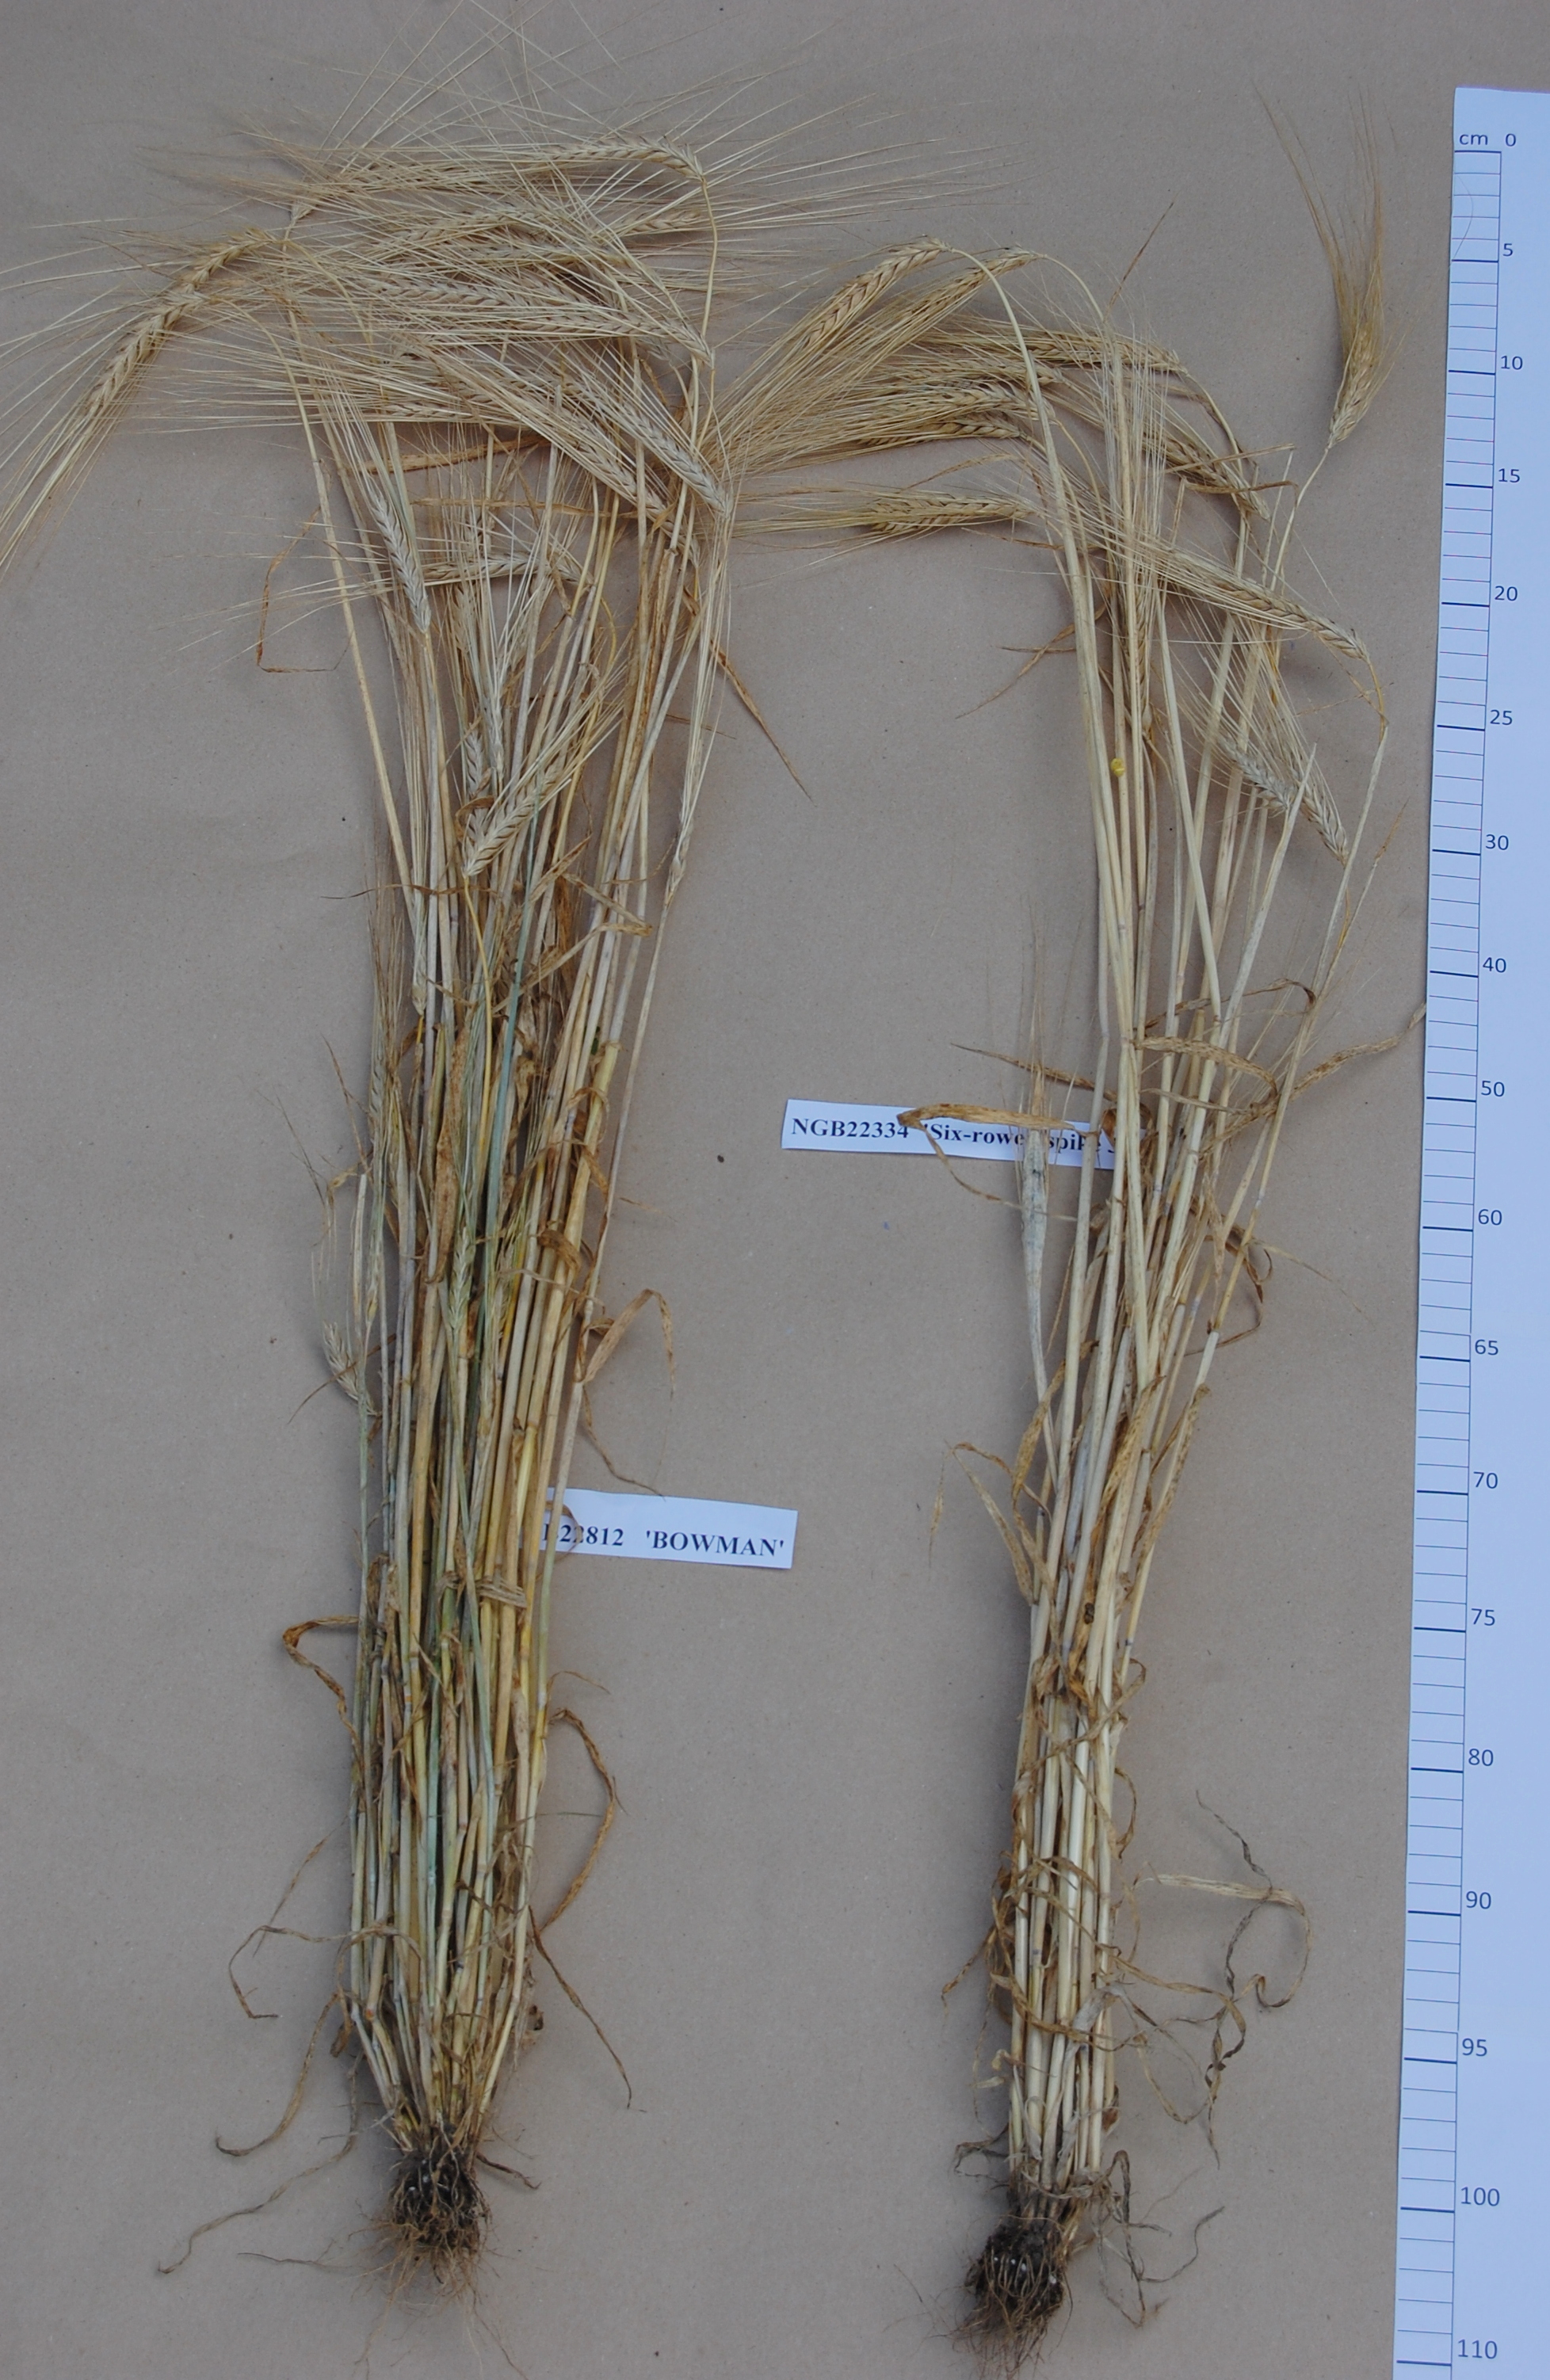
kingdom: Plantae
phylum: Tracheophyta
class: Liliopsida
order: Poales
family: Poaceae
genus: Hordeum
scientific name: Hordeum vulgare
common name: Common barley
